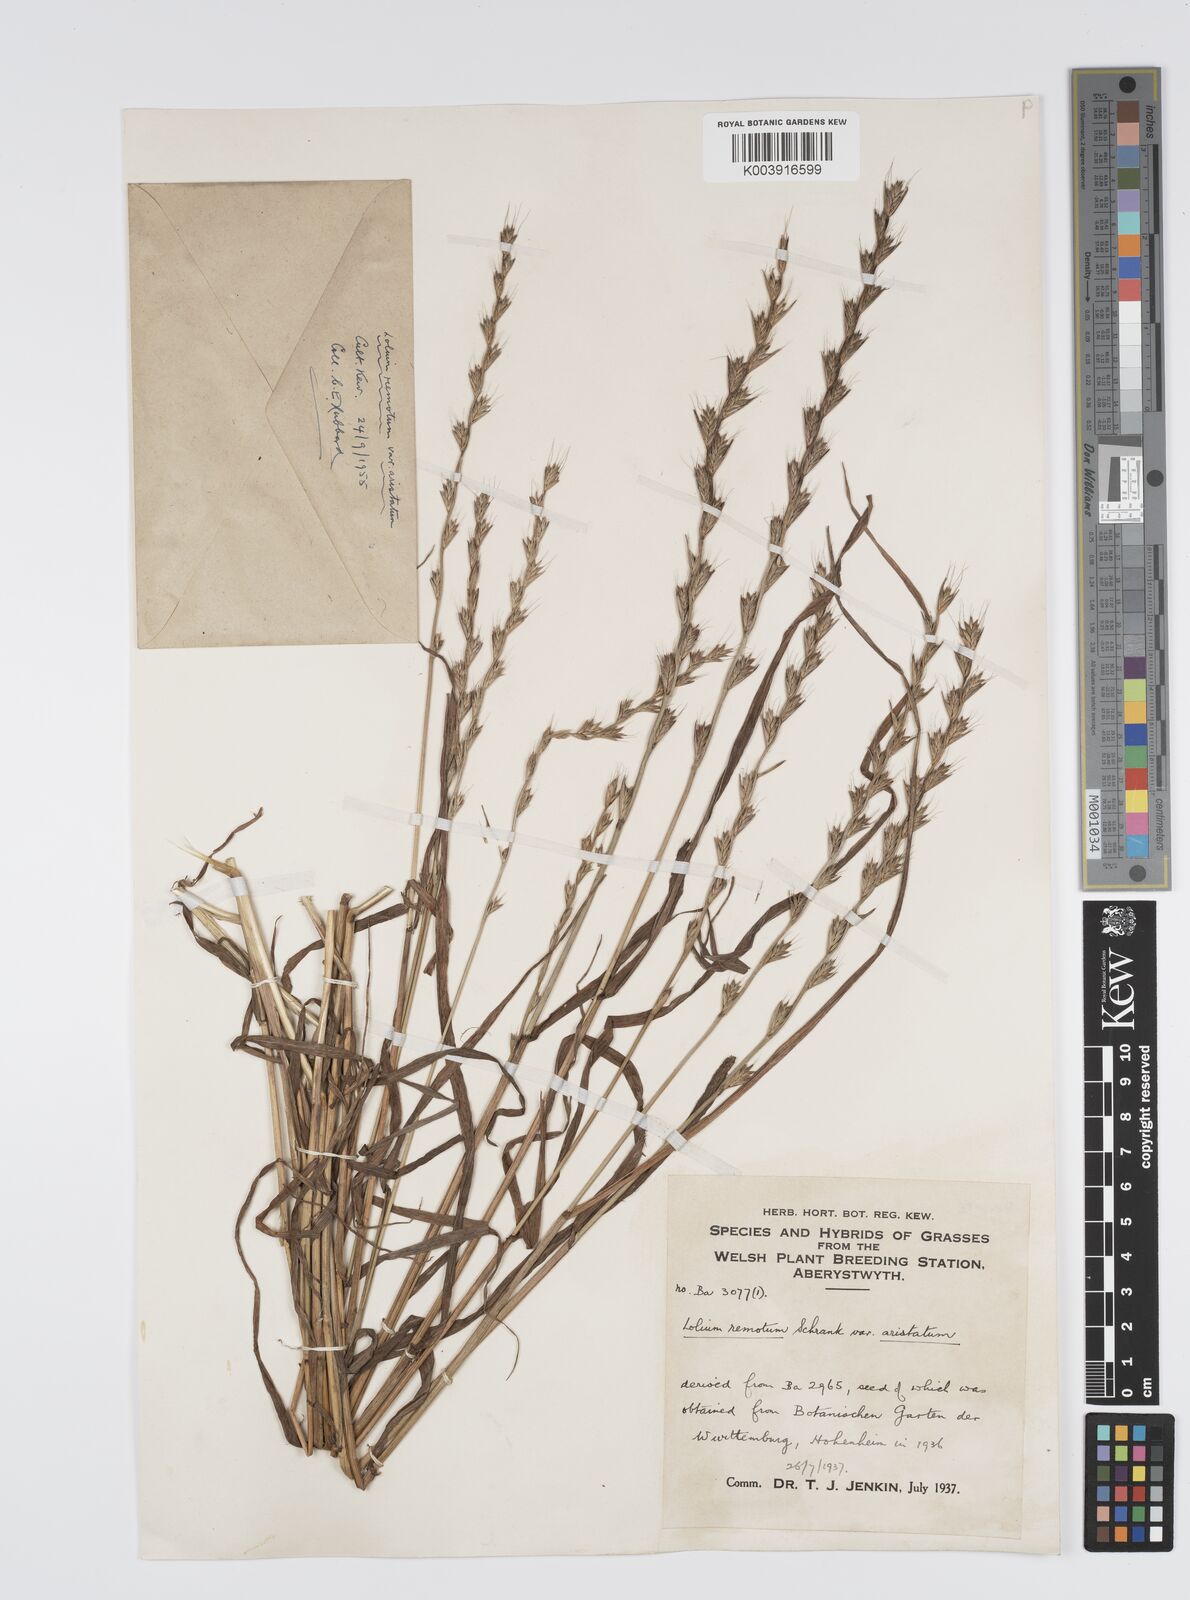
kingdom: Plantae
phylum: Tracheophyta
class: Liliopsida
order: Poales
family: Poaceae
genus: Lolium
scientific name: Lolium remotum
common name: Flaxfield rye-grass
